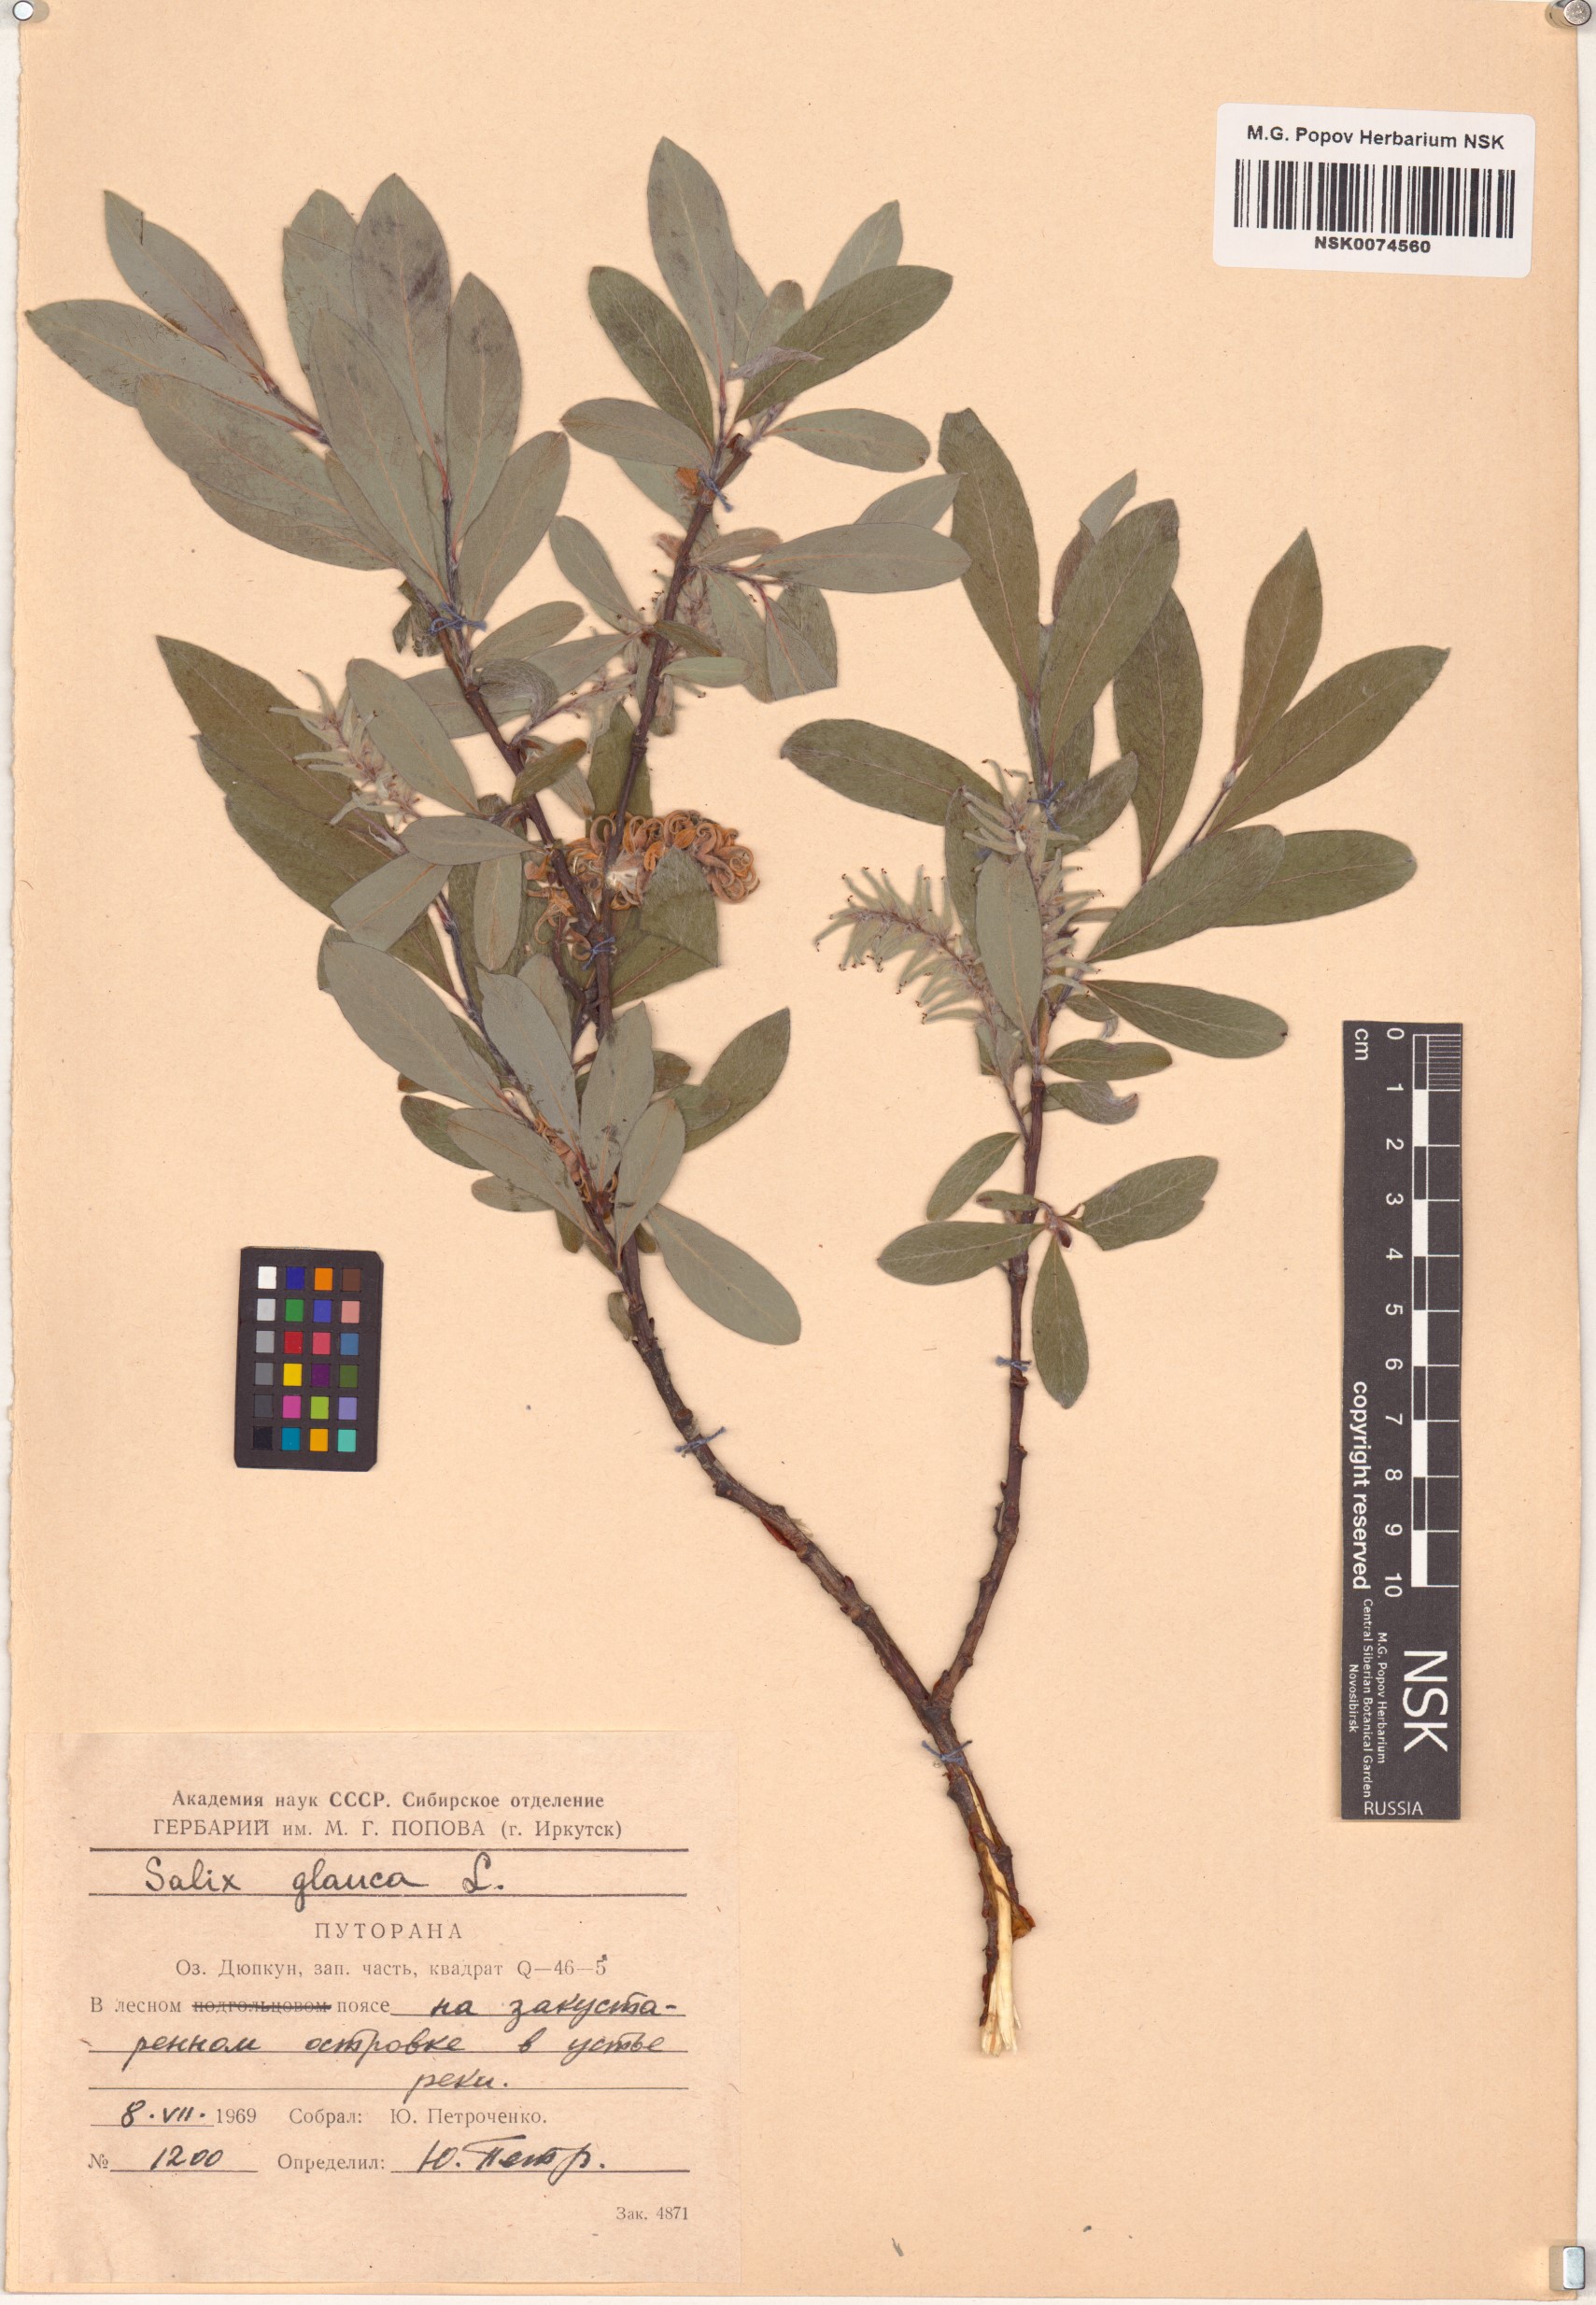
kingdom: Plantae
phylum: Tracheophyta
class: Magnoliopsida
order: Malpighiales
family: Salicaceae
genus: Salix
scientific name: Salix glauca
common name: Glaucous willow
